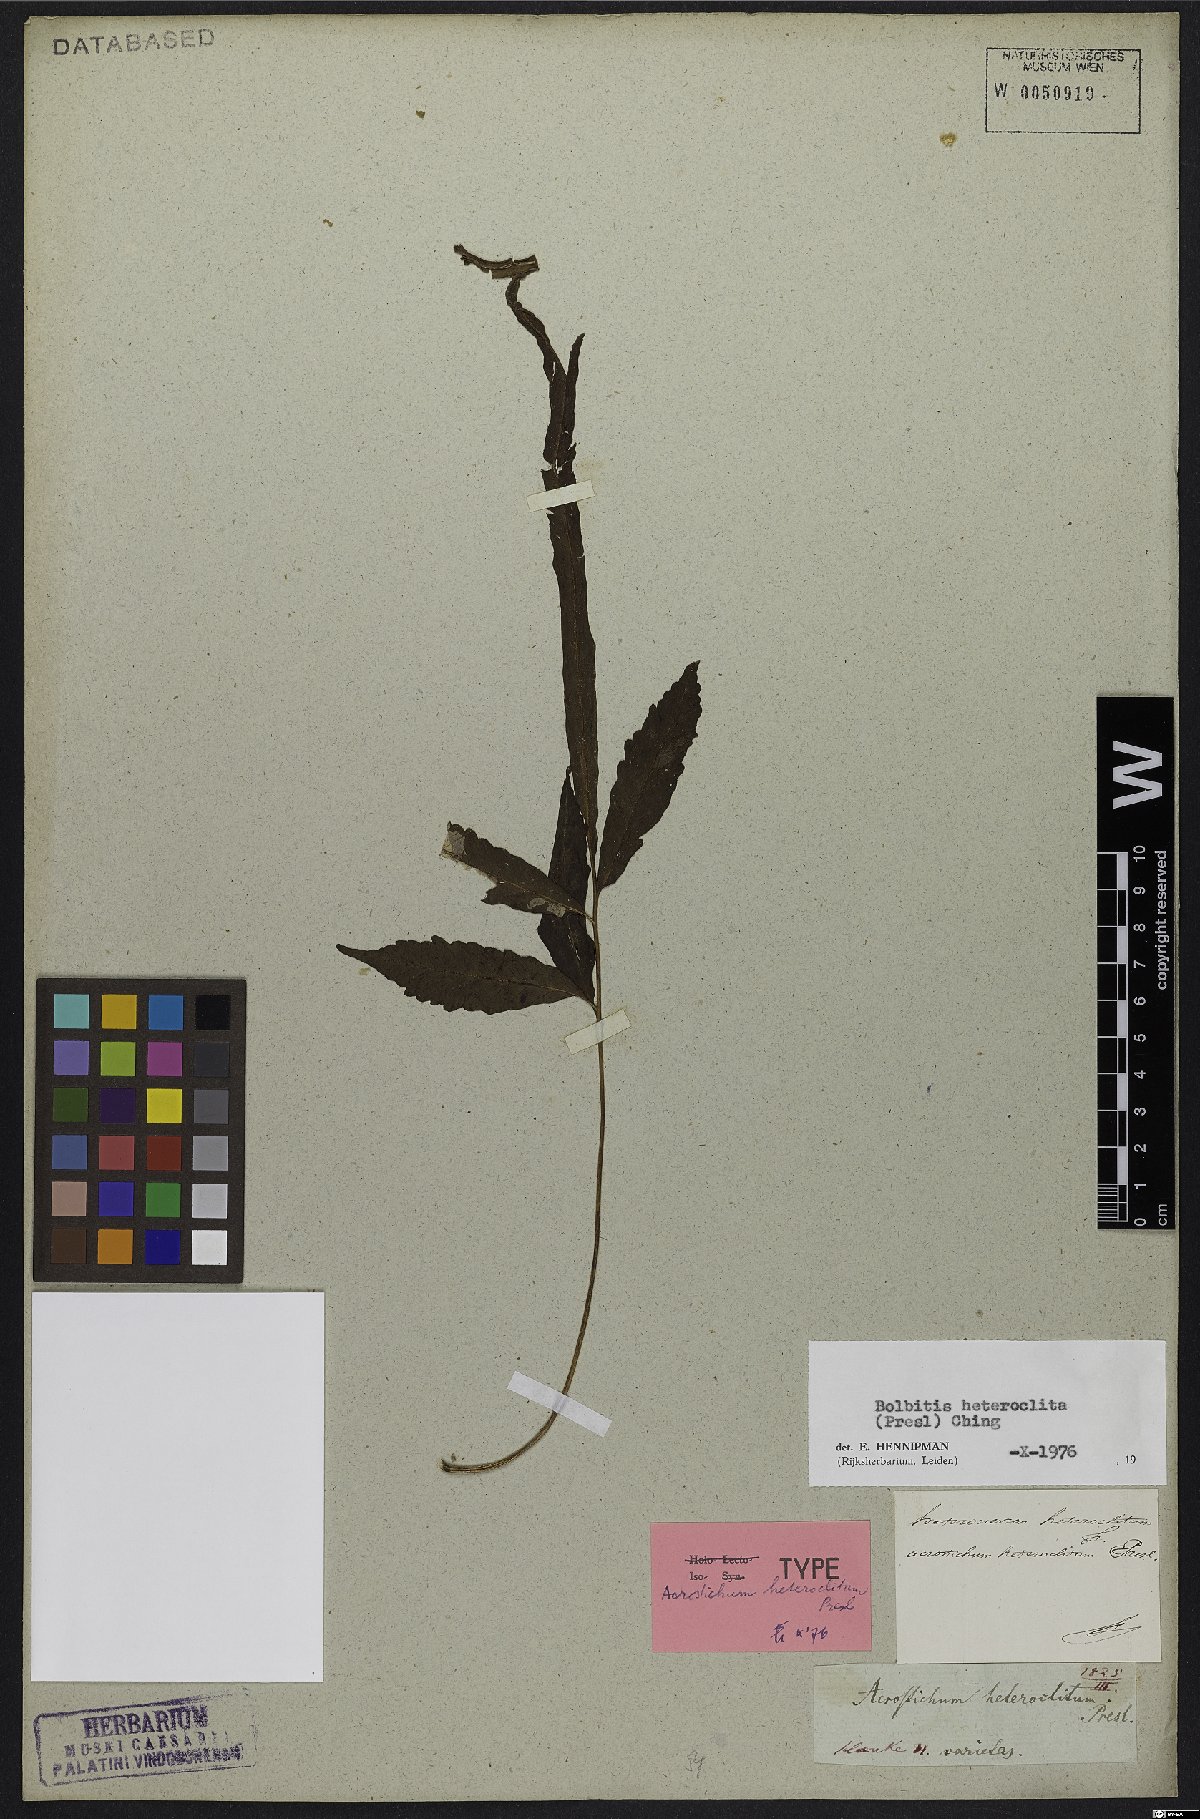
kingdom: Plantae
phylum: Tracheophyta
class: Polypodiopsida
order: Polypodiales
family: Dryopteridaceae
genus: Bolbitis
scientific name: Bolbitis heteroclita
